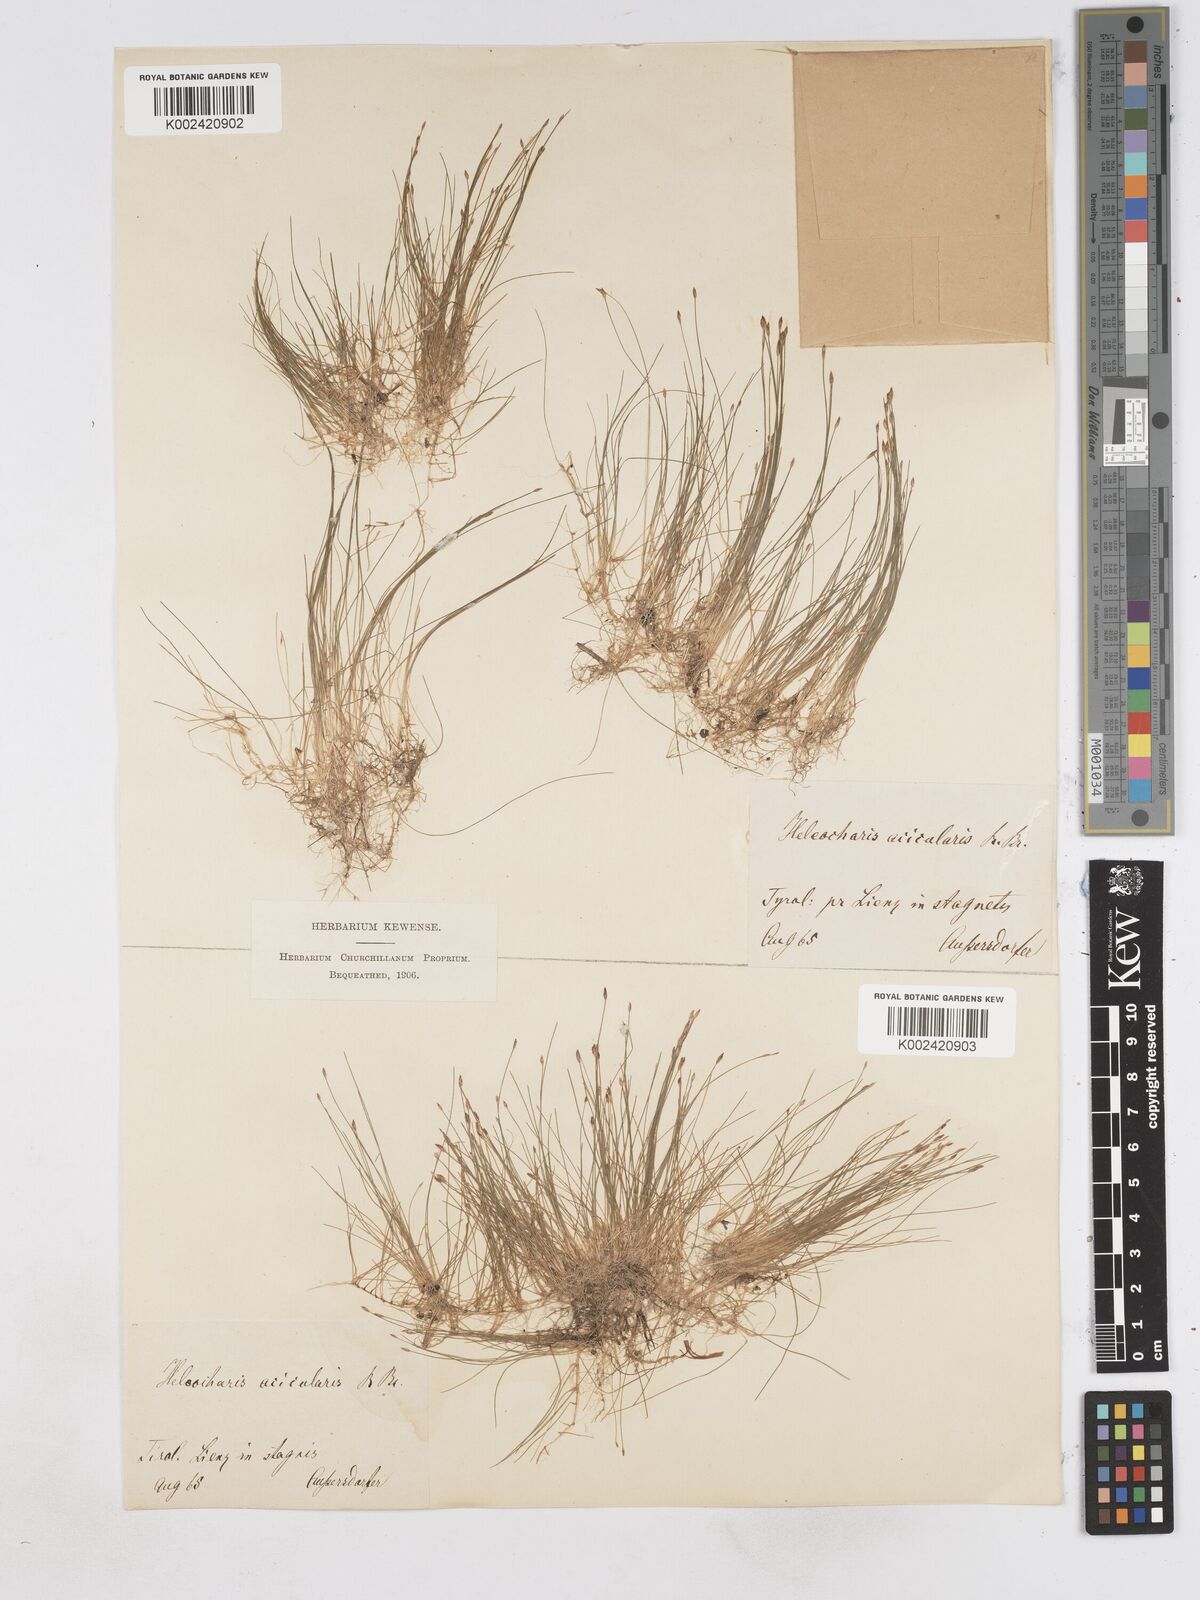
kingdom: Plantae
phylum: Tracheophyta
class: Liliopsida
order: Poales
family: Cyperaceae
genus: Eleocharis
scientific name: Eleocharis acicularis
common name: Needle spike-rush
